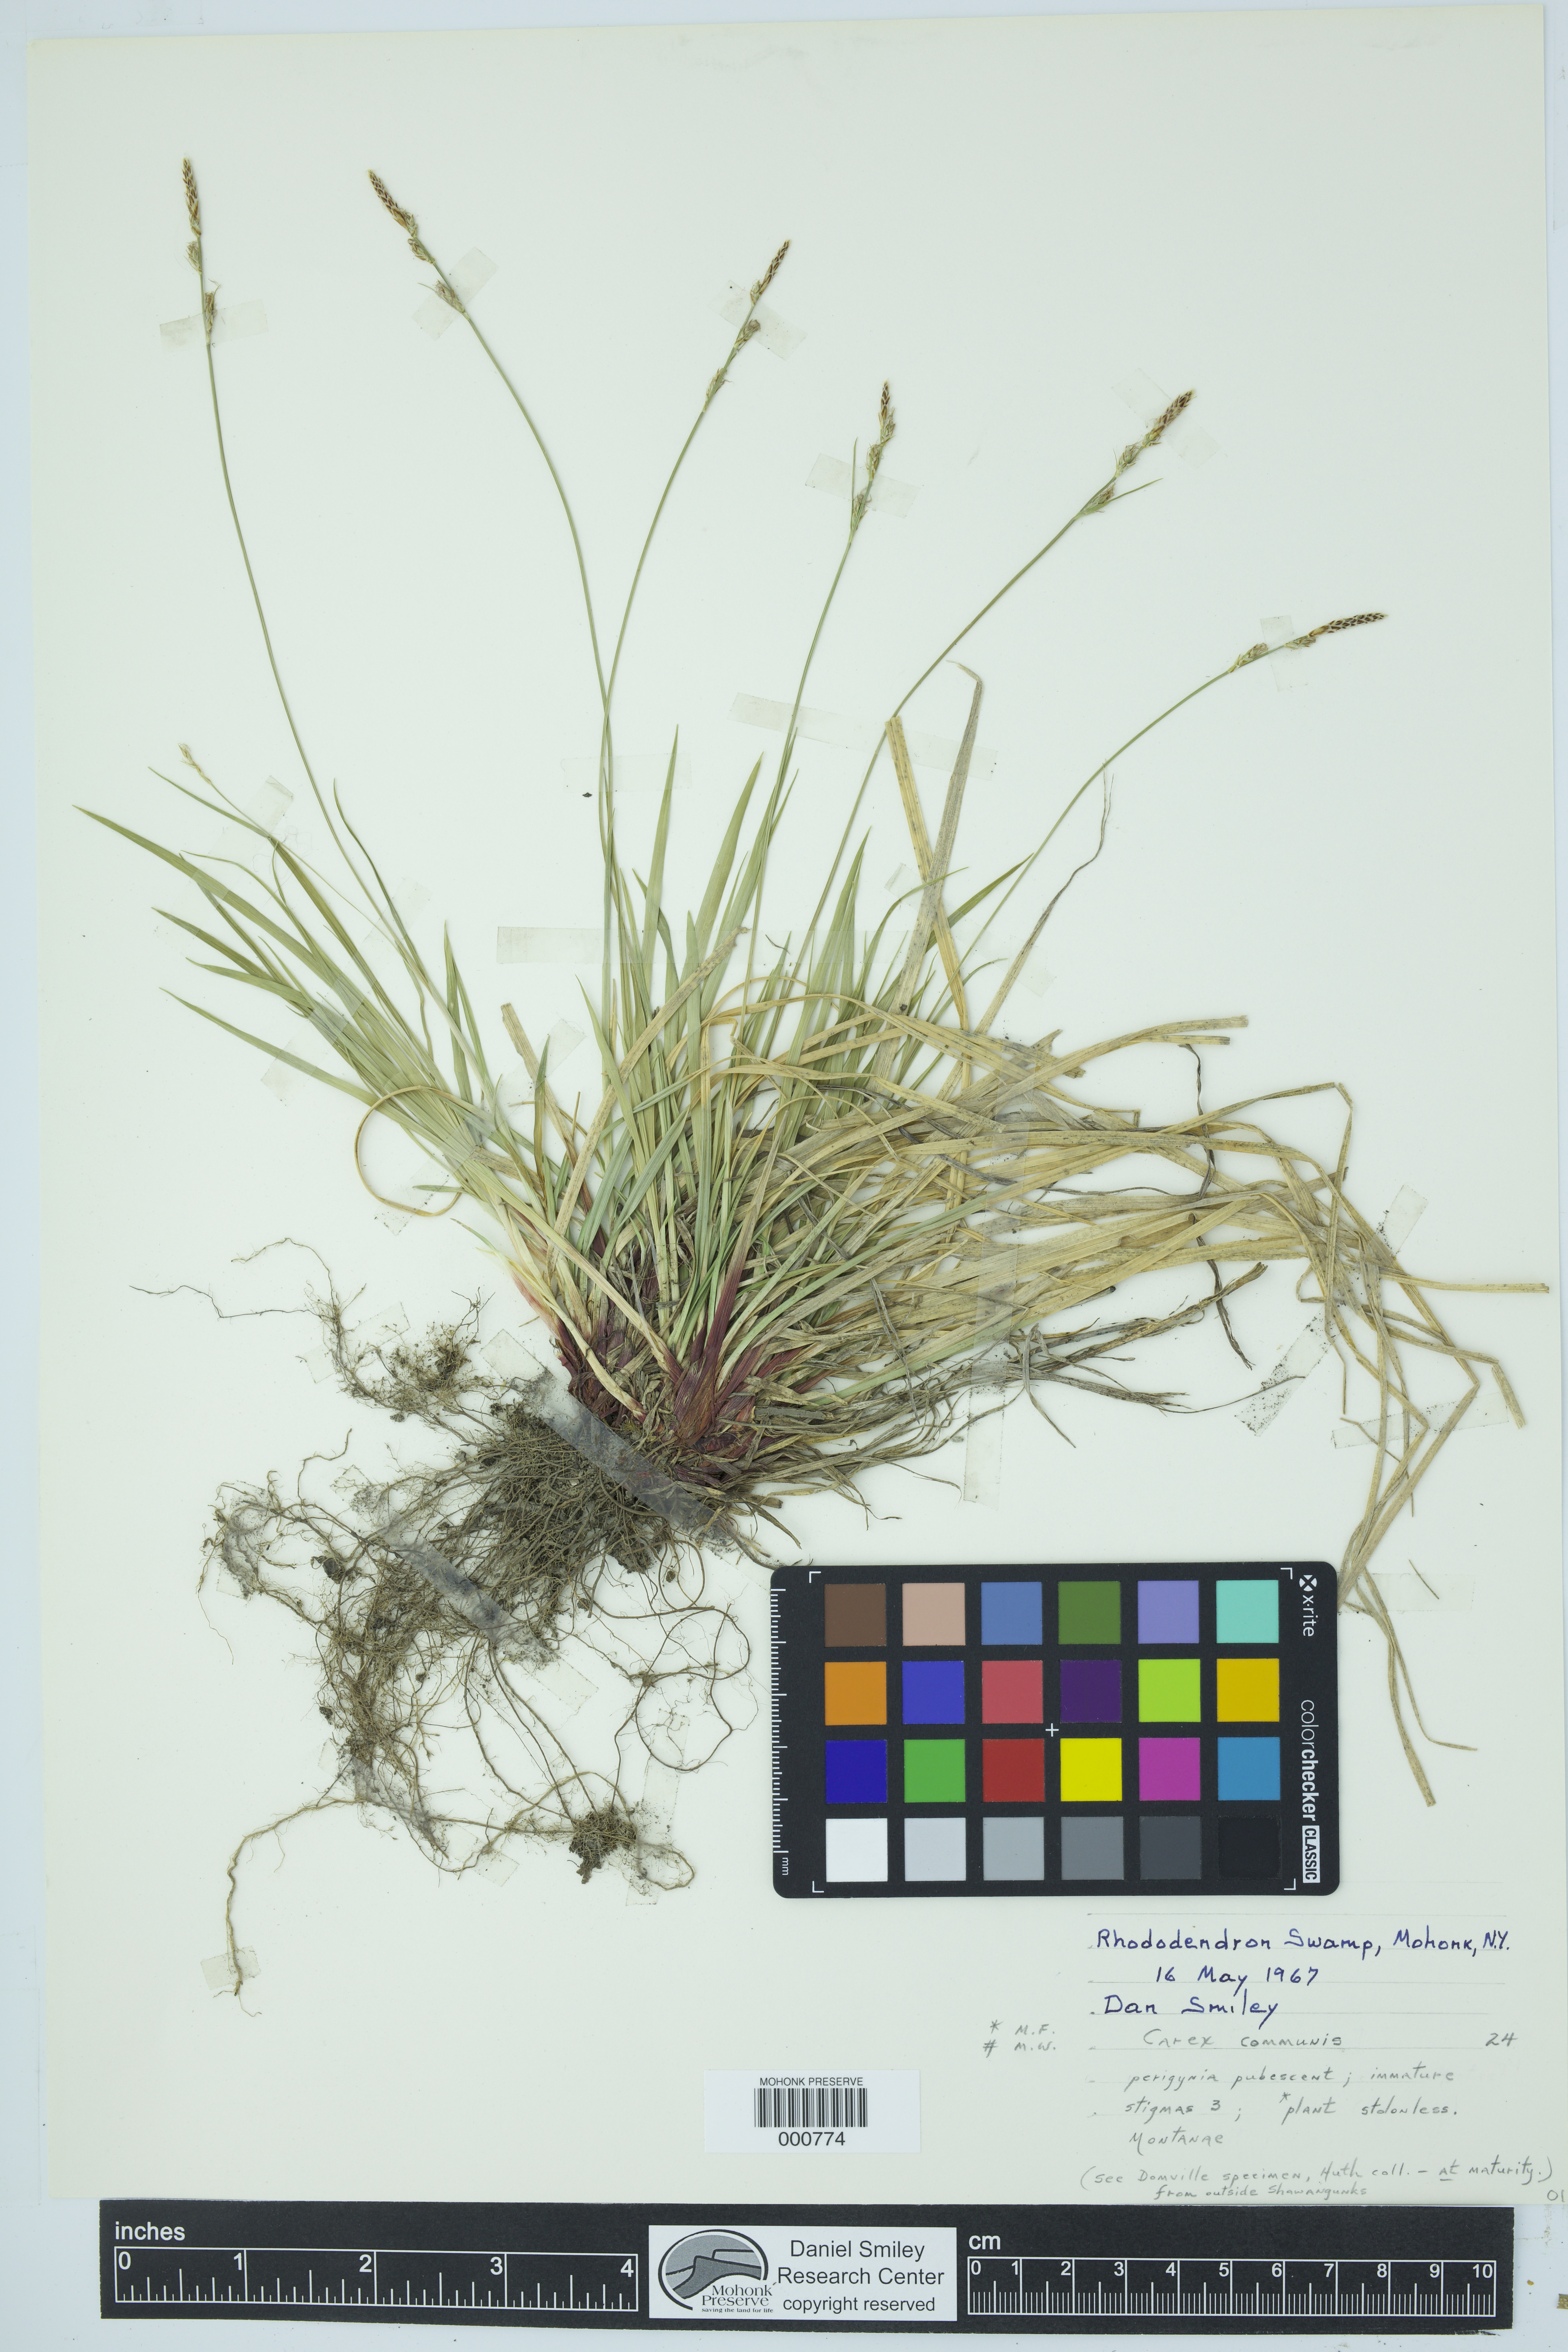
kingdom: Plantae
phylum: Tracheophyta
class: Liliopsida
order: Poales
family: Cyperaceae
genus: Carex
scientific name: Carex communis
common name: Colonial oak sedge
